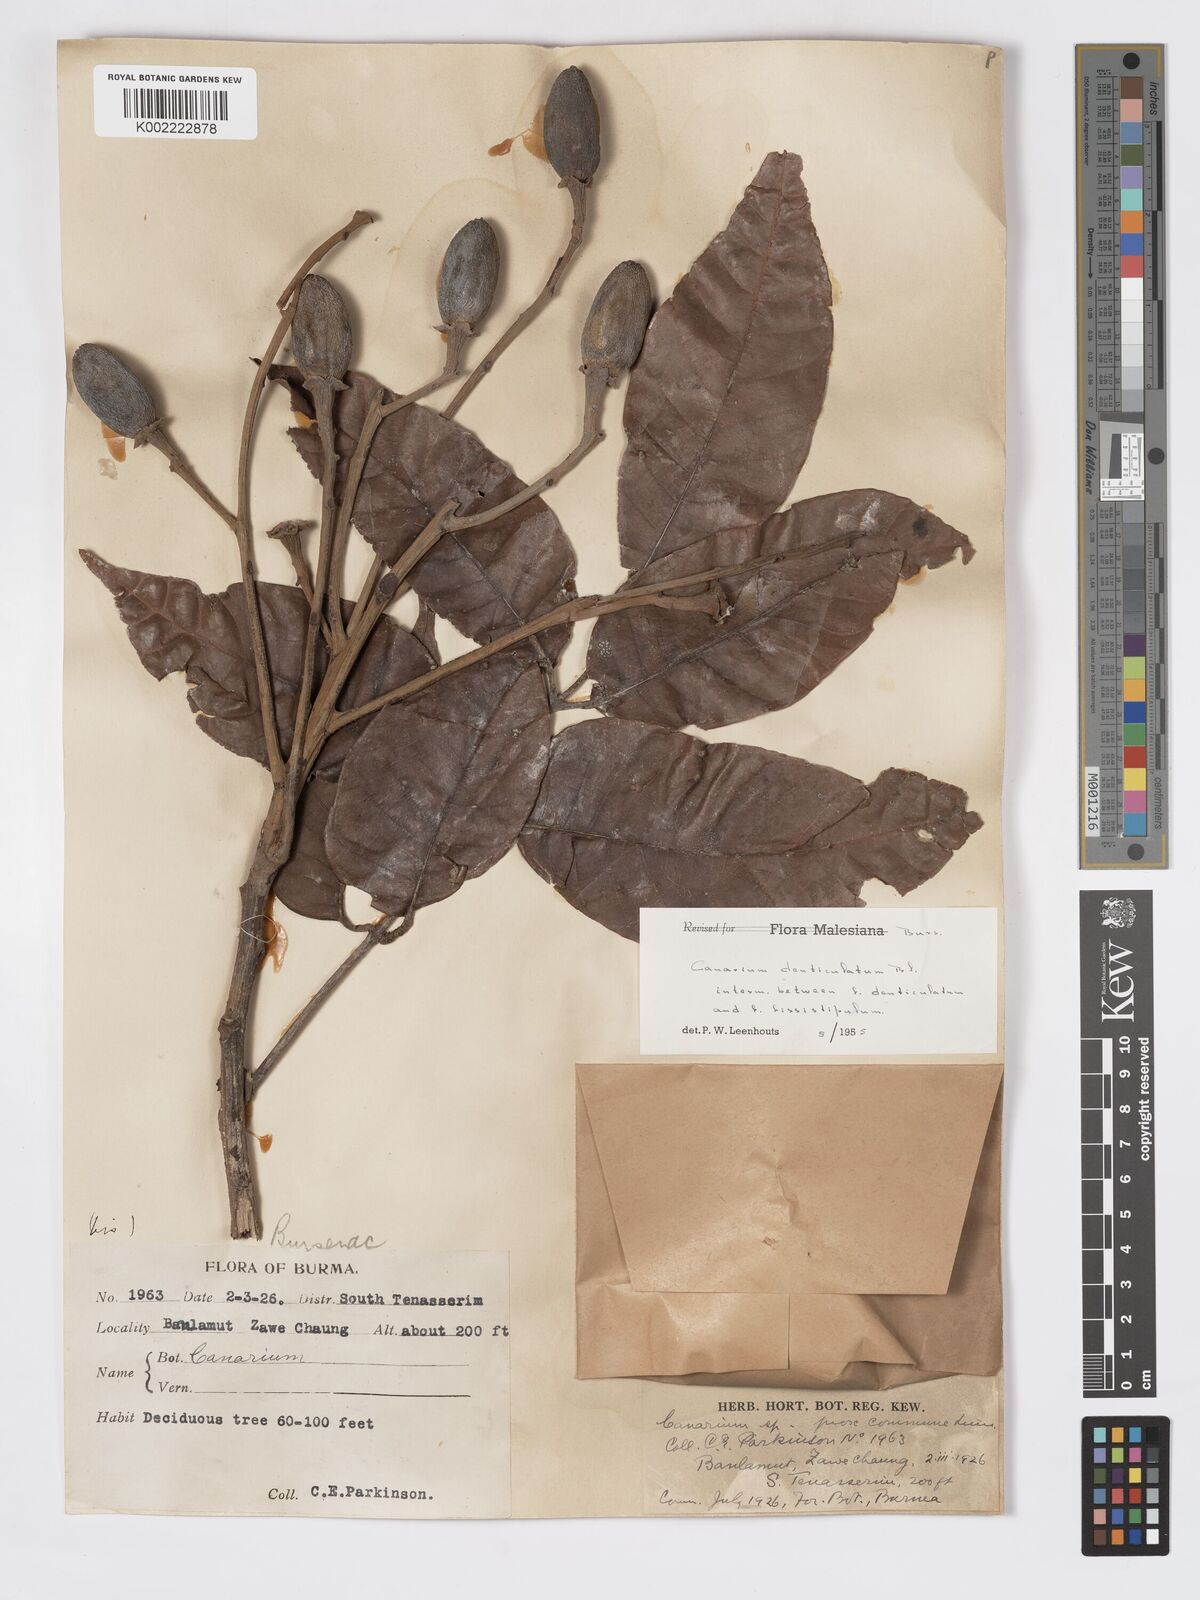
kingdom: Plantae
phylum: Tracheophyta
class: Magnoliopsida
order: Sapindales
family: Burseraceae
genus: Canarium
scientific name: Canarium denticulatum
